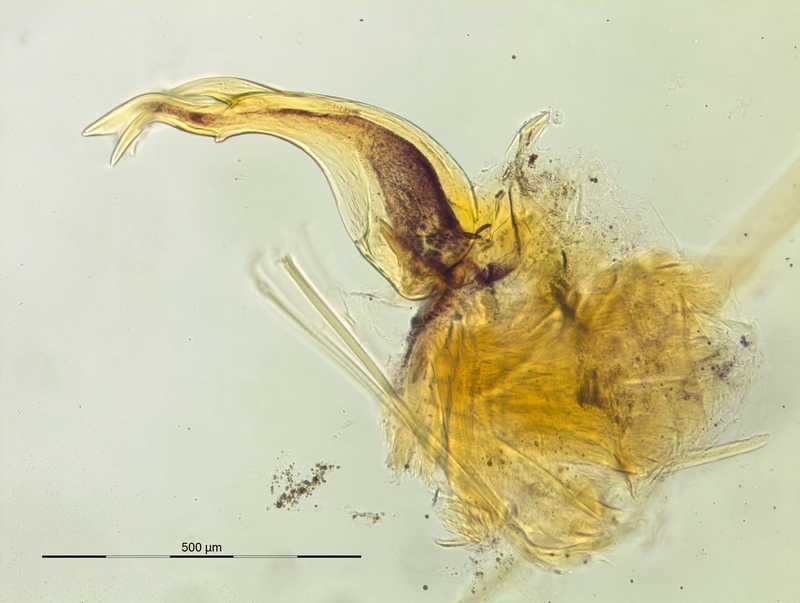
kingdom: Animalia
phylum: Arthropoda
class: Diplopoda
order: Chordeumatida
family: Craspedosomatidae
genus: Helvetiosoma
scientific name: Helvetiosoma helveticum
